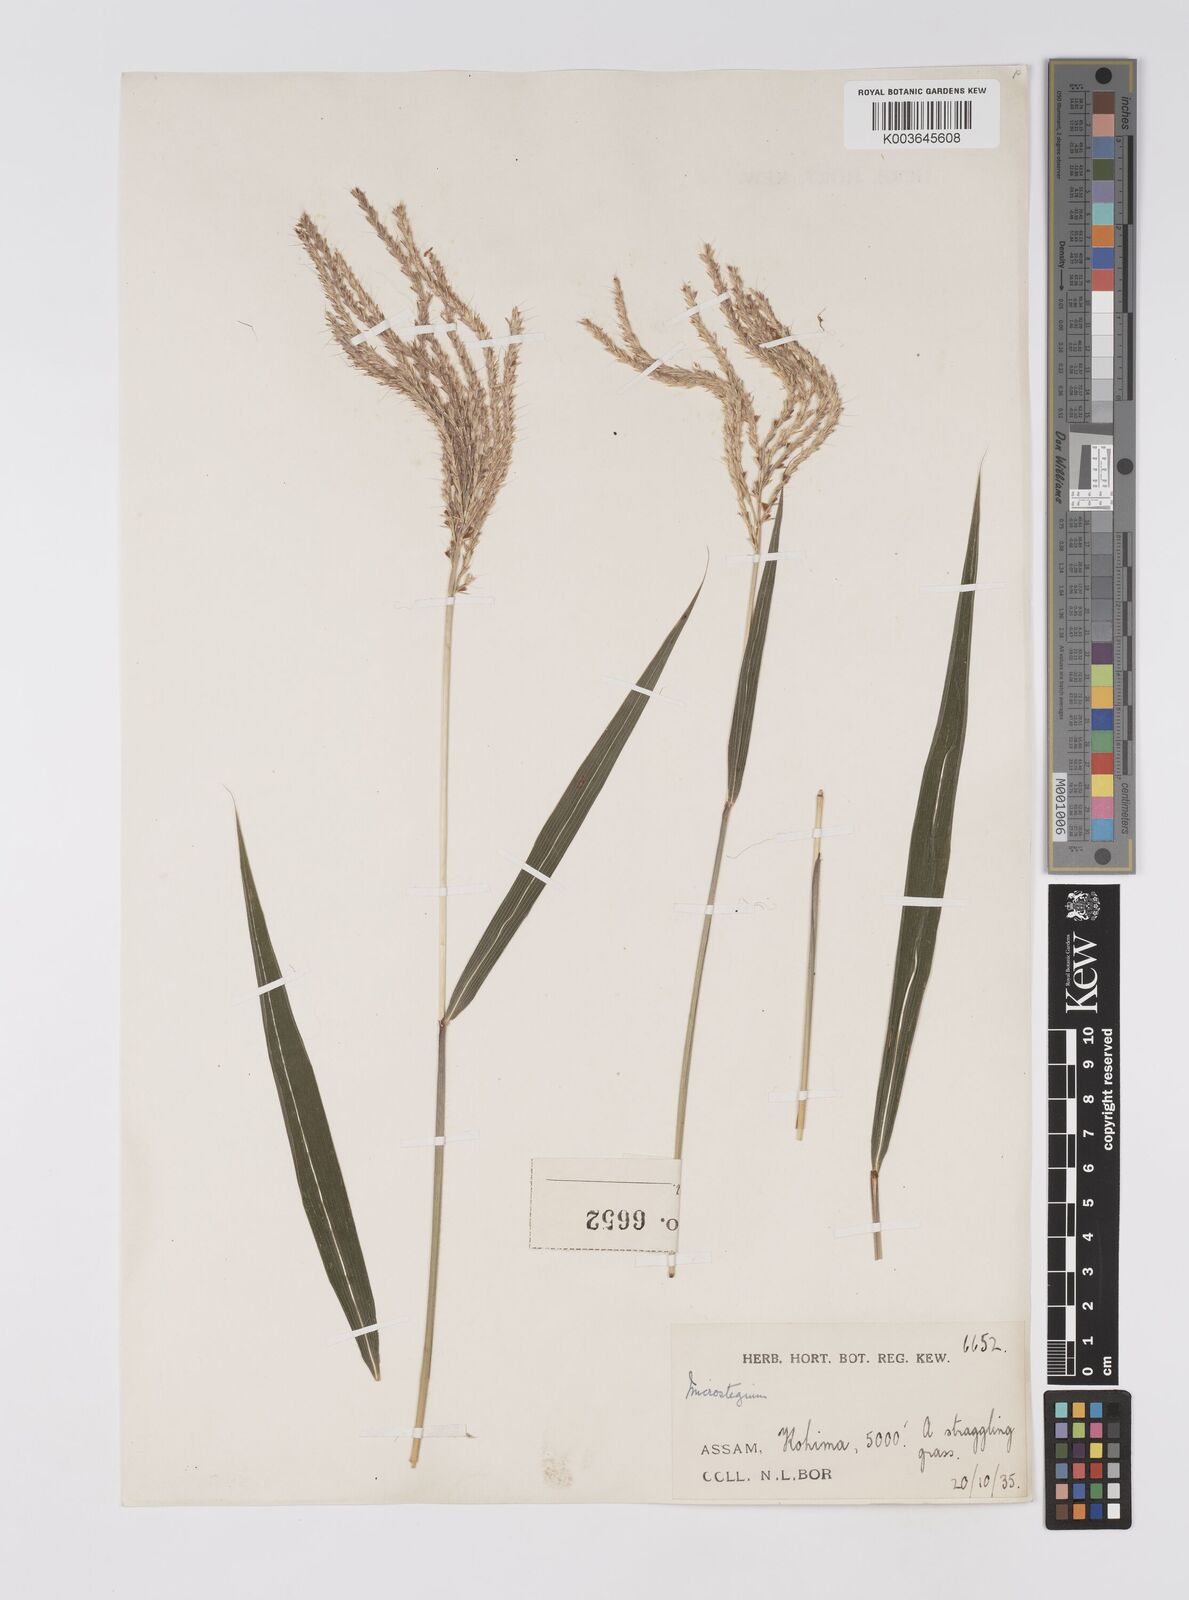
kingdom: Plantae
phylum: Tracheophyta
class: Liliopsida
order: Poales
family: Poaceae
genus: Microstegium
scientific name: Microstegium fasciculatum
